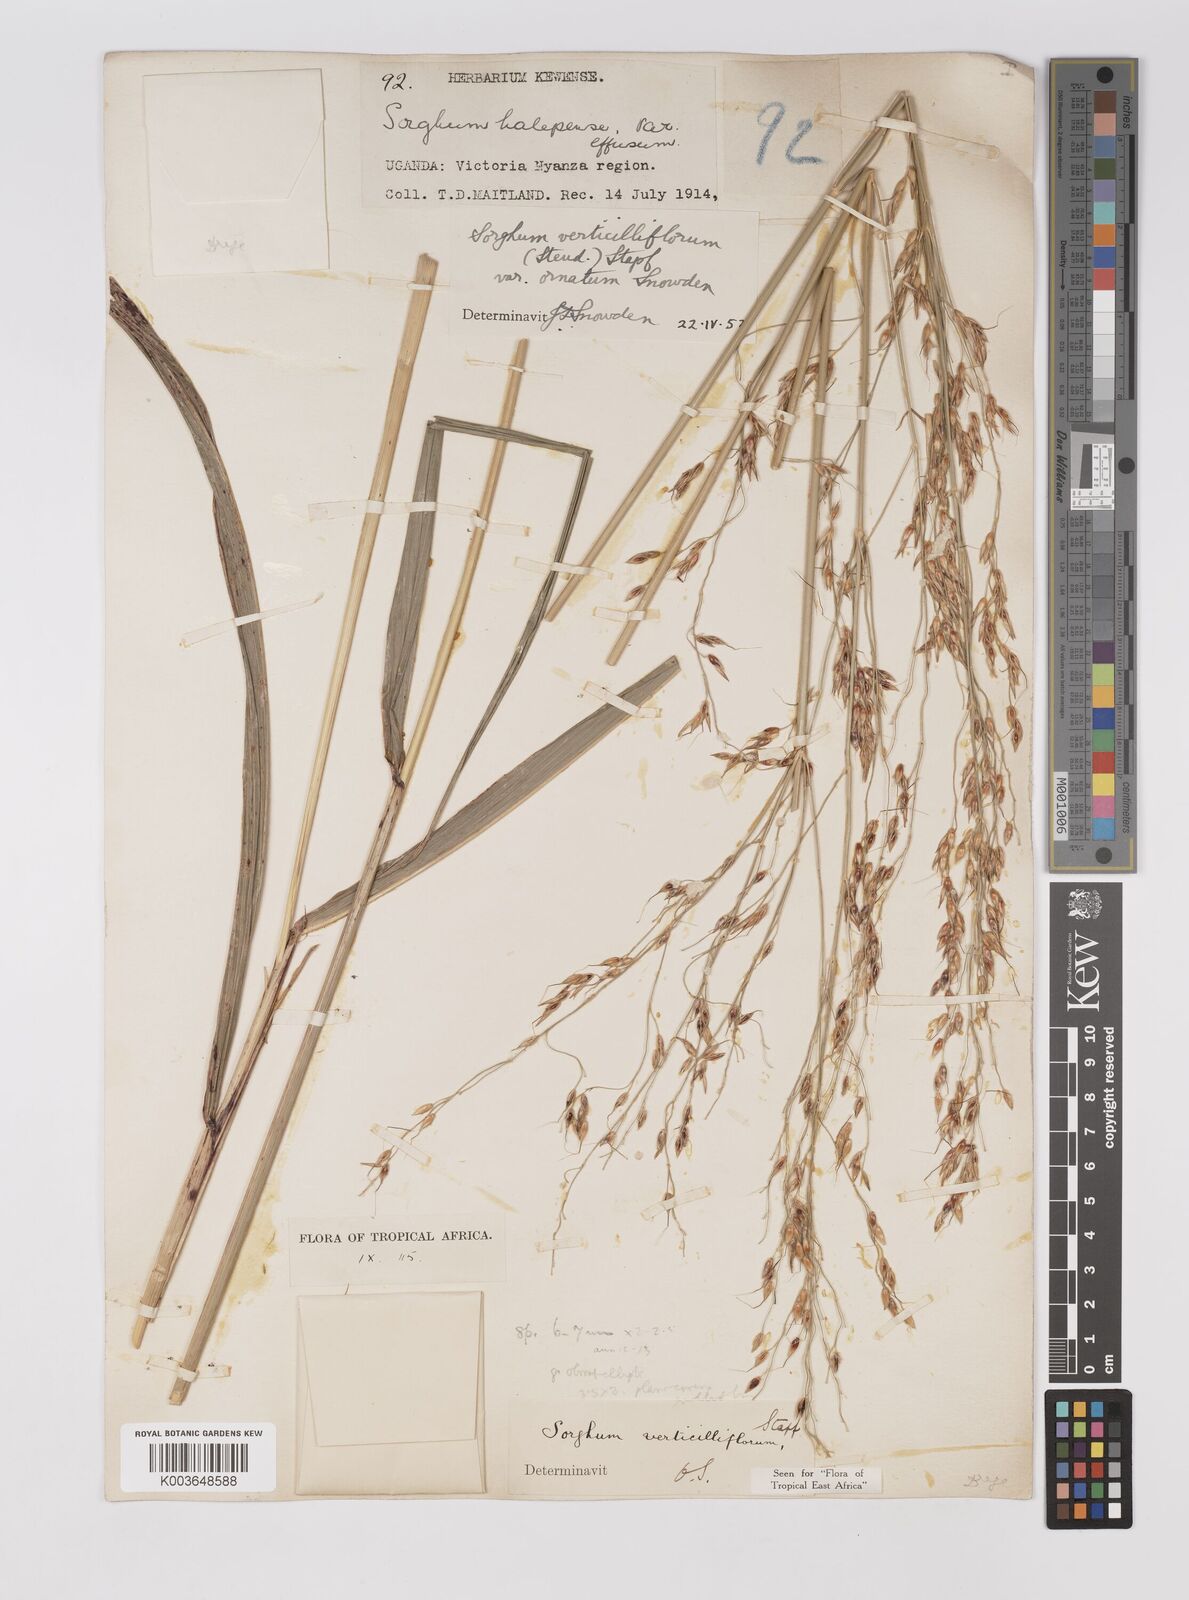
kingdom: Plantae
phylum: Tracheophyta
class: Liliopsida
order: Poales
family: Poaceae
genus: Sorghum
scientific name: Sorghum arundinaceum
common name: Sorghum
